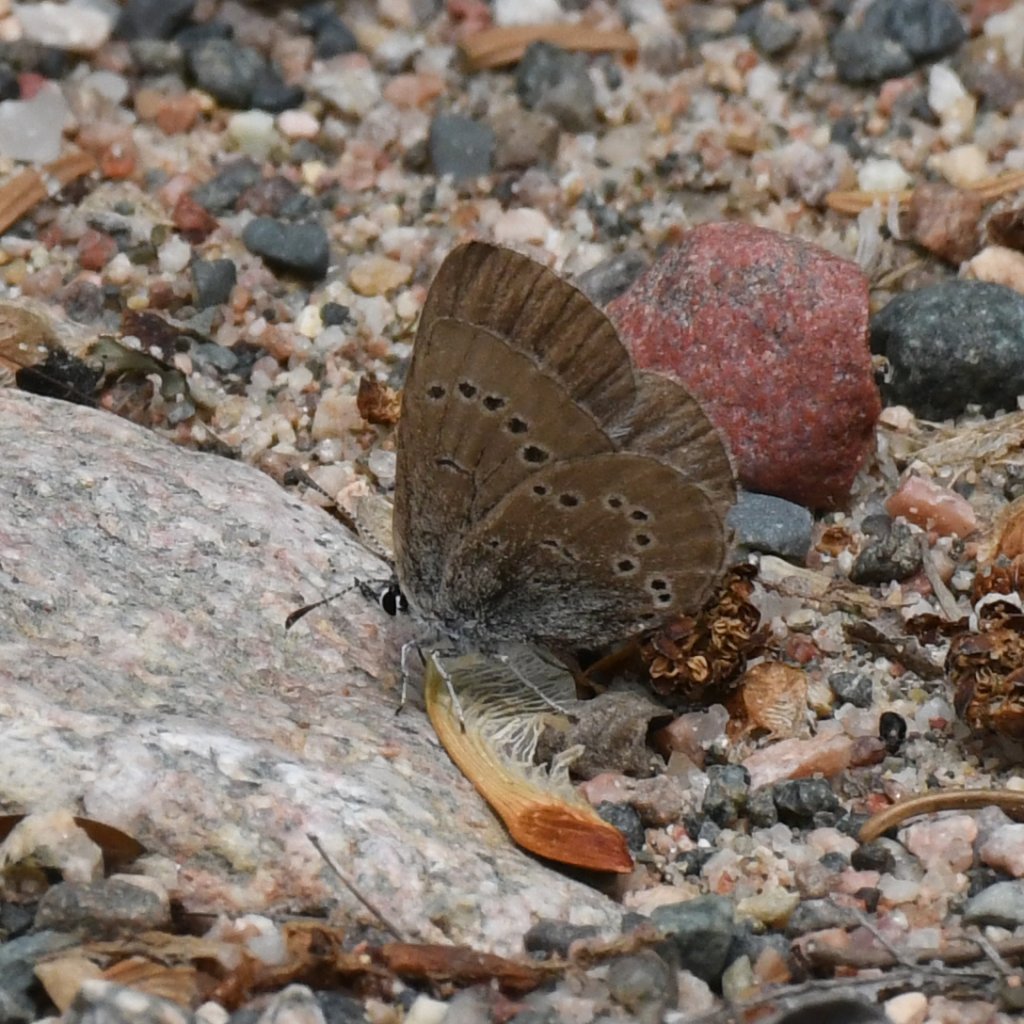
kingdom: Animalia
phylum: Arthropoda
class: Insecta
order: Lepidoptera
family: Lycaenidae
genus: Glaucopsyche
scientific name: Glaucopsyche lygdamus
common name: Silvery Blue
